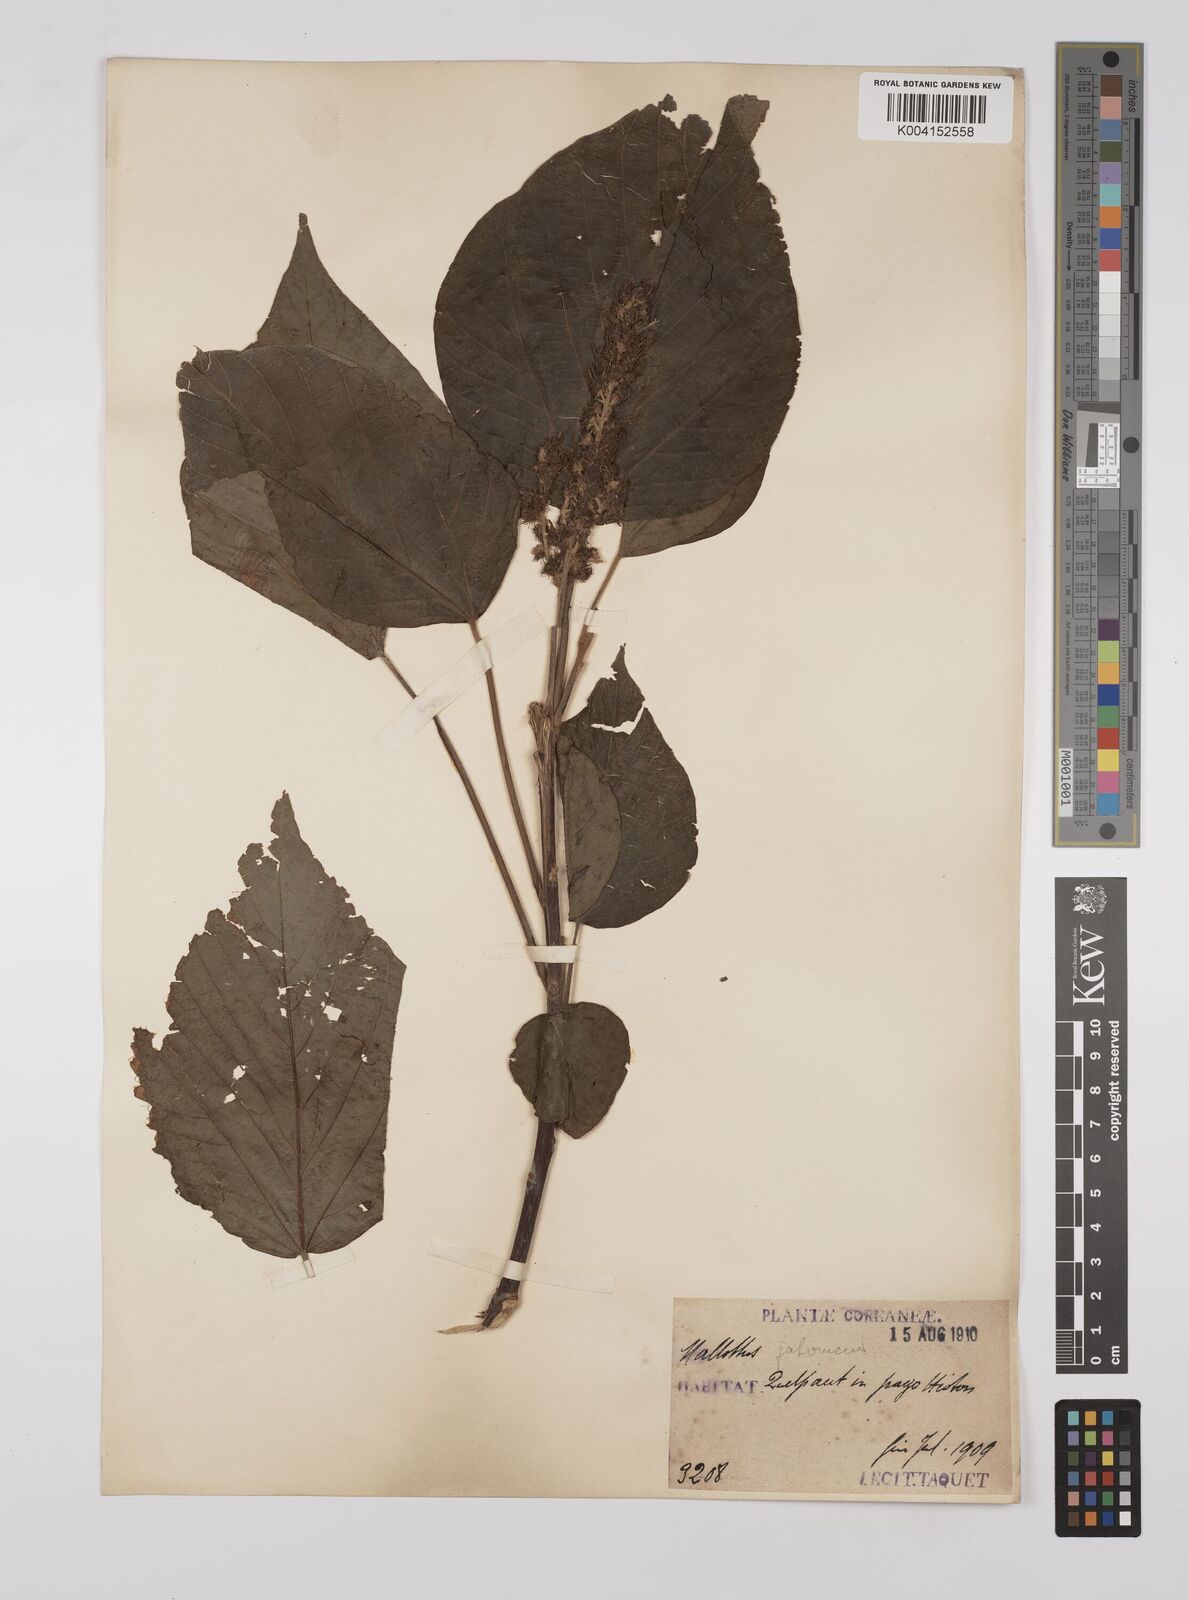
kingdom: Plantae
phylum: Tracheophyta
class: Magnoliopsida
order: Malpighiales
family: Euphorbiaceae
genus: Mallotus
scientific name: Mallotus japonicus
